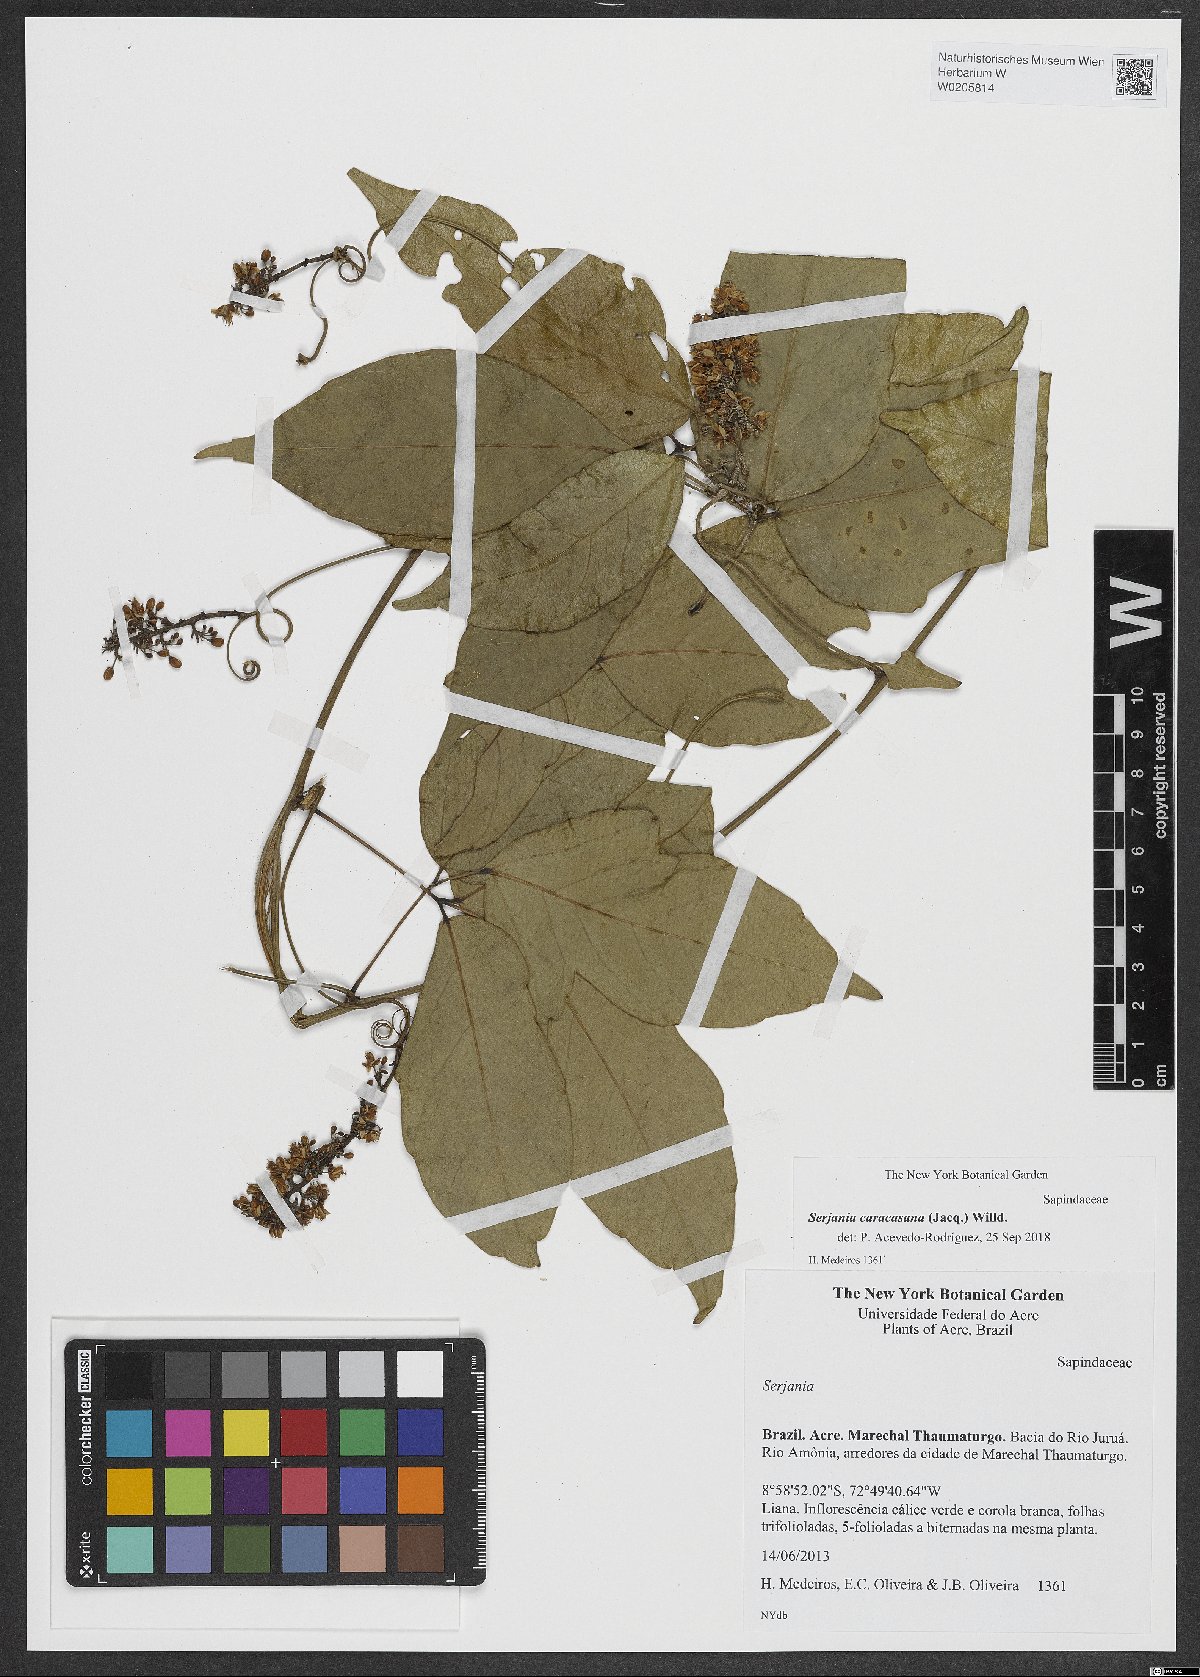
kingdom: Plantae
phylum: Tracheophyta
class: Magnoliopsida
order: Sapindales
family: Sapindaceae
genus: Serjania
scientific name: Serjania caracasana
